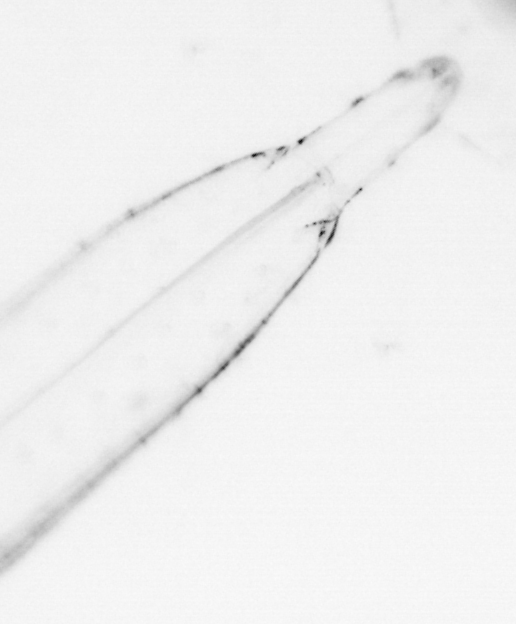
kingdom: Animalia
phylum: Chaetognatha
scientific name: Chaetognatha
